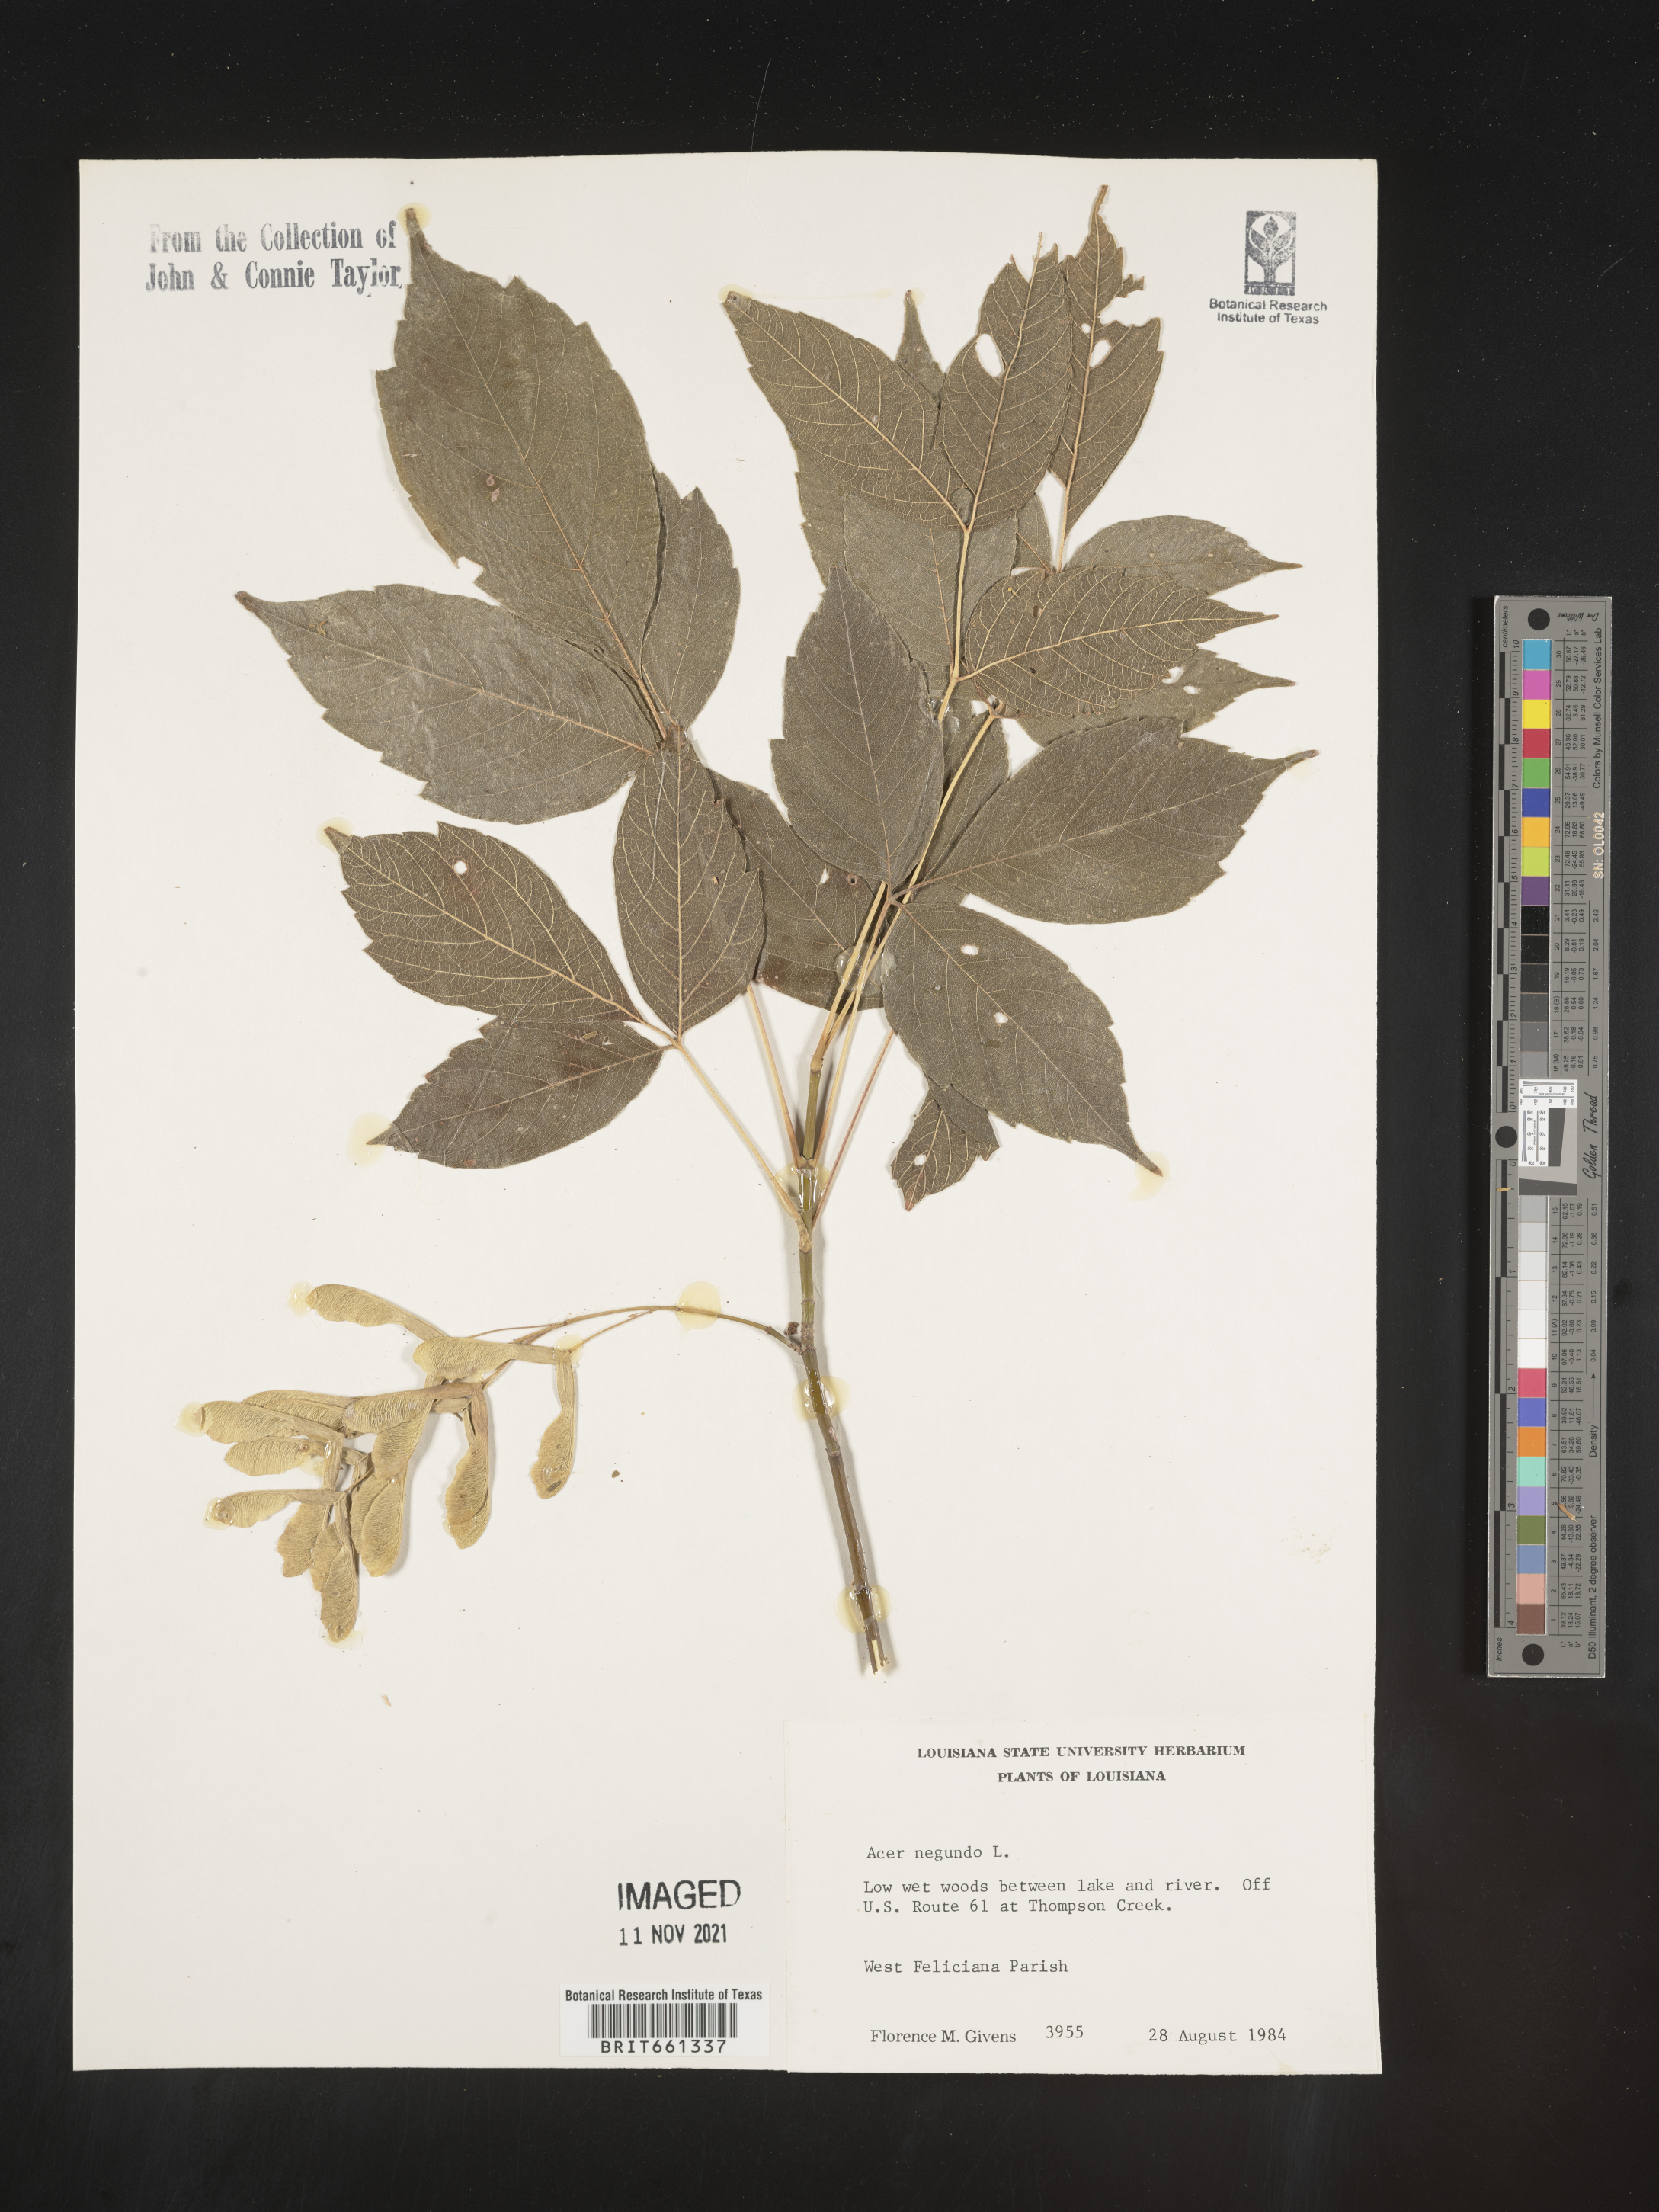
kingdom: Plantae
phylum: Tracheophyta
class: Magnoliopsida
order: Sapindales
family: Sapindaceae
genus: Acer
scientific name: Acer negundo
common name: Ashleaf maple
